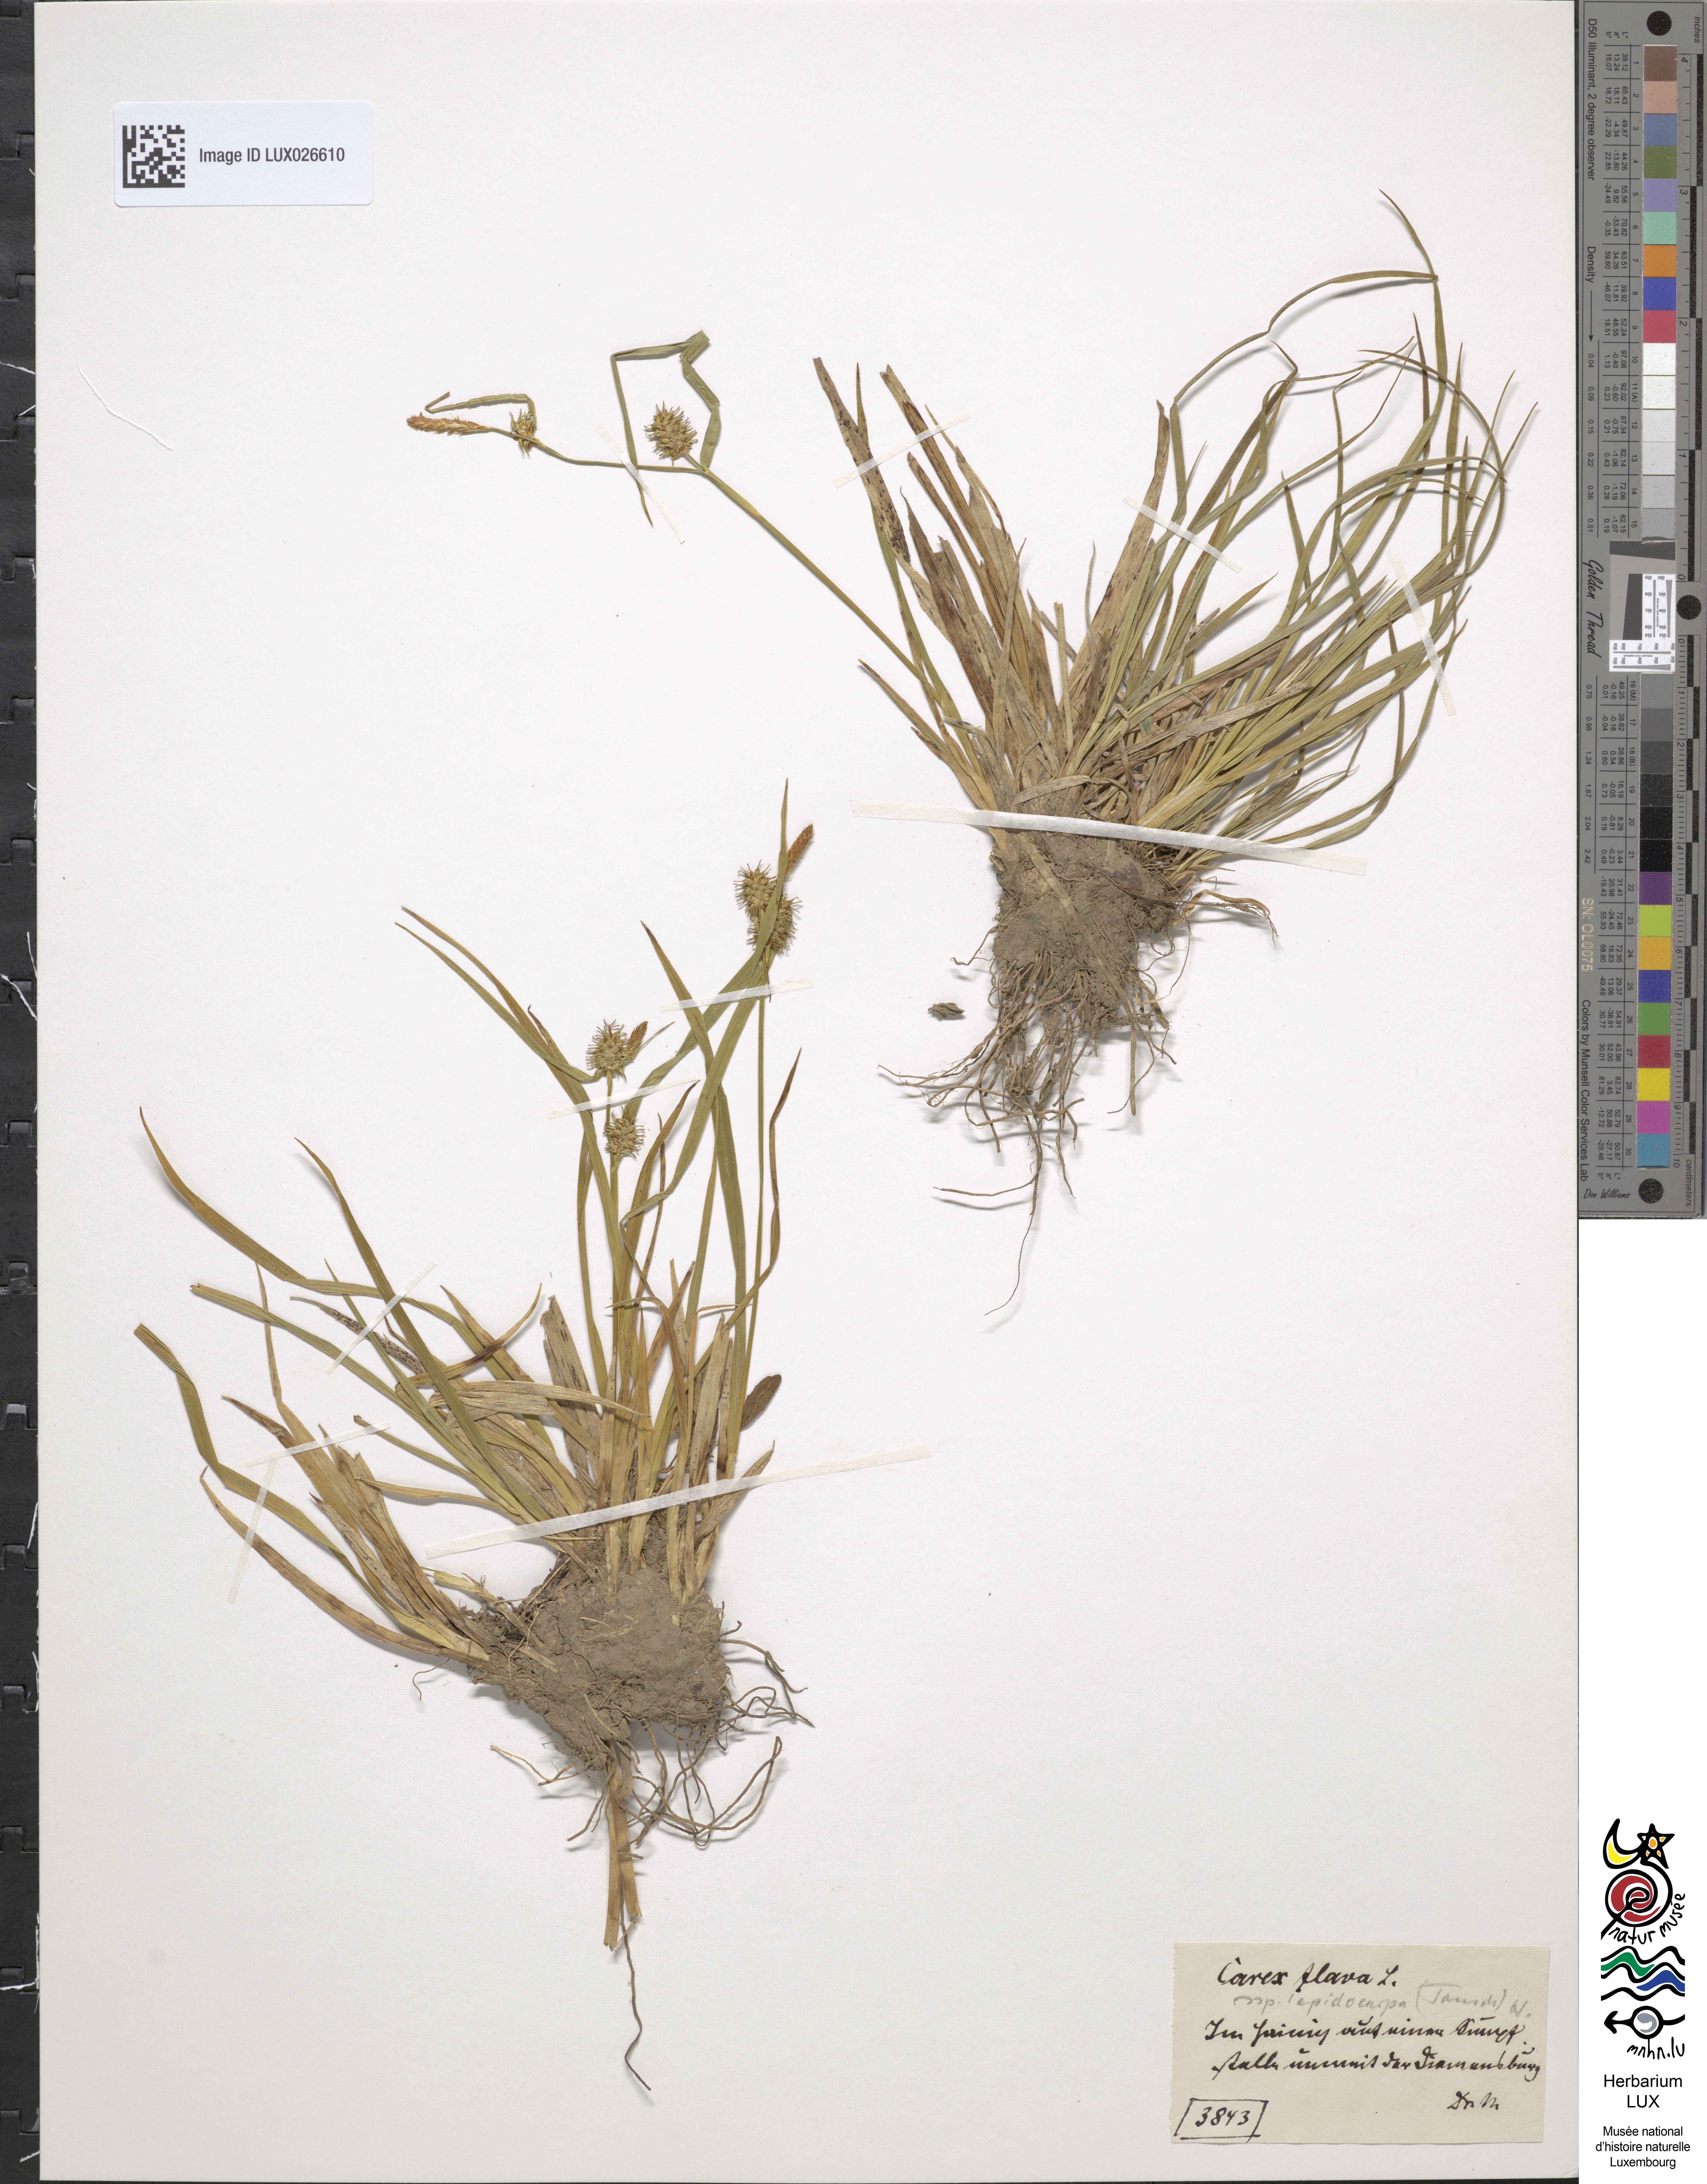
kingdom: Plantae
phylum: Tracheophyta
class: Liliopsida
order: Poales
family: Cyperaceae
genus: Carex
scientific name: Carex lepidocarpa
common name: Long-stalked yellow-sedge
